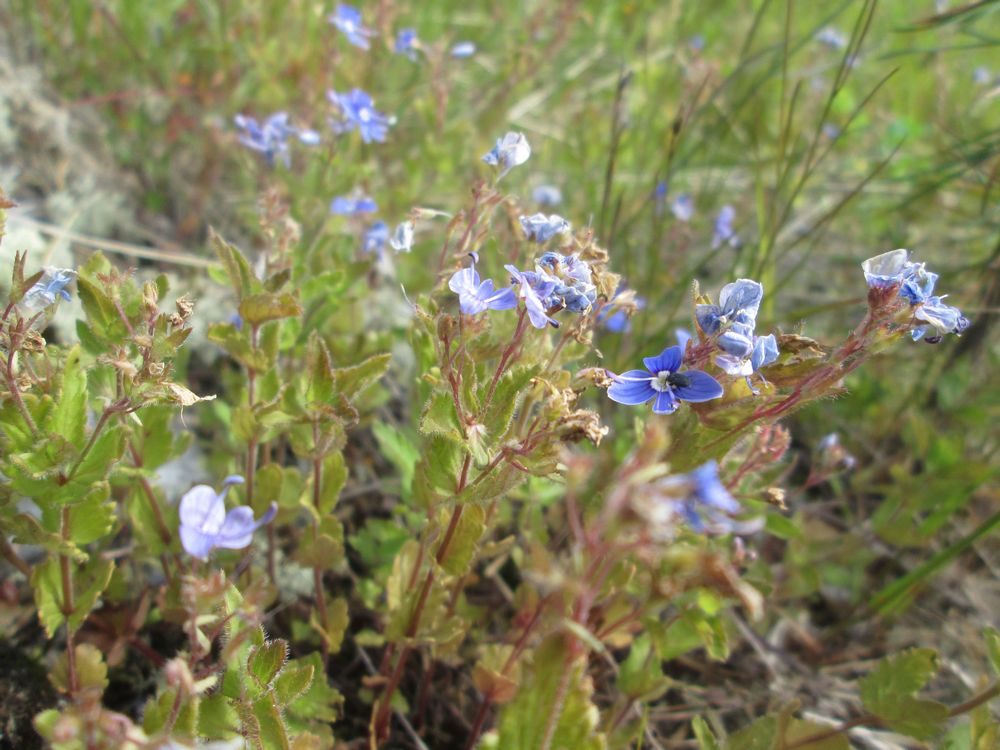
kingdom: Plantae
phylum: Tracheophyta
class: Magnoliopsida
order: Lamiales
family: Plantaginaceae
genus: Veronica
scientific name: Veronica chamaedrys
